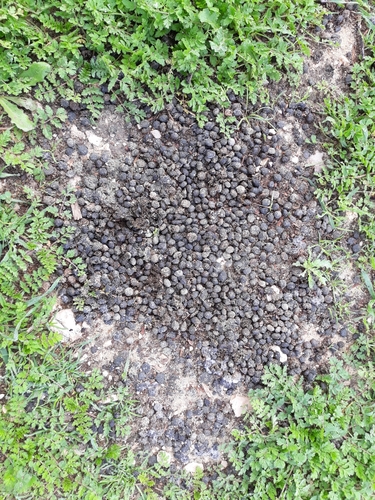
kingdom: Animalia
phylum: Chordata
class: Mammalia
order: Lagomorpha
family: Leporidae
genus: Oryctolagus
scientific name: Oryctolagus cuniculus
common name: European rabbit
